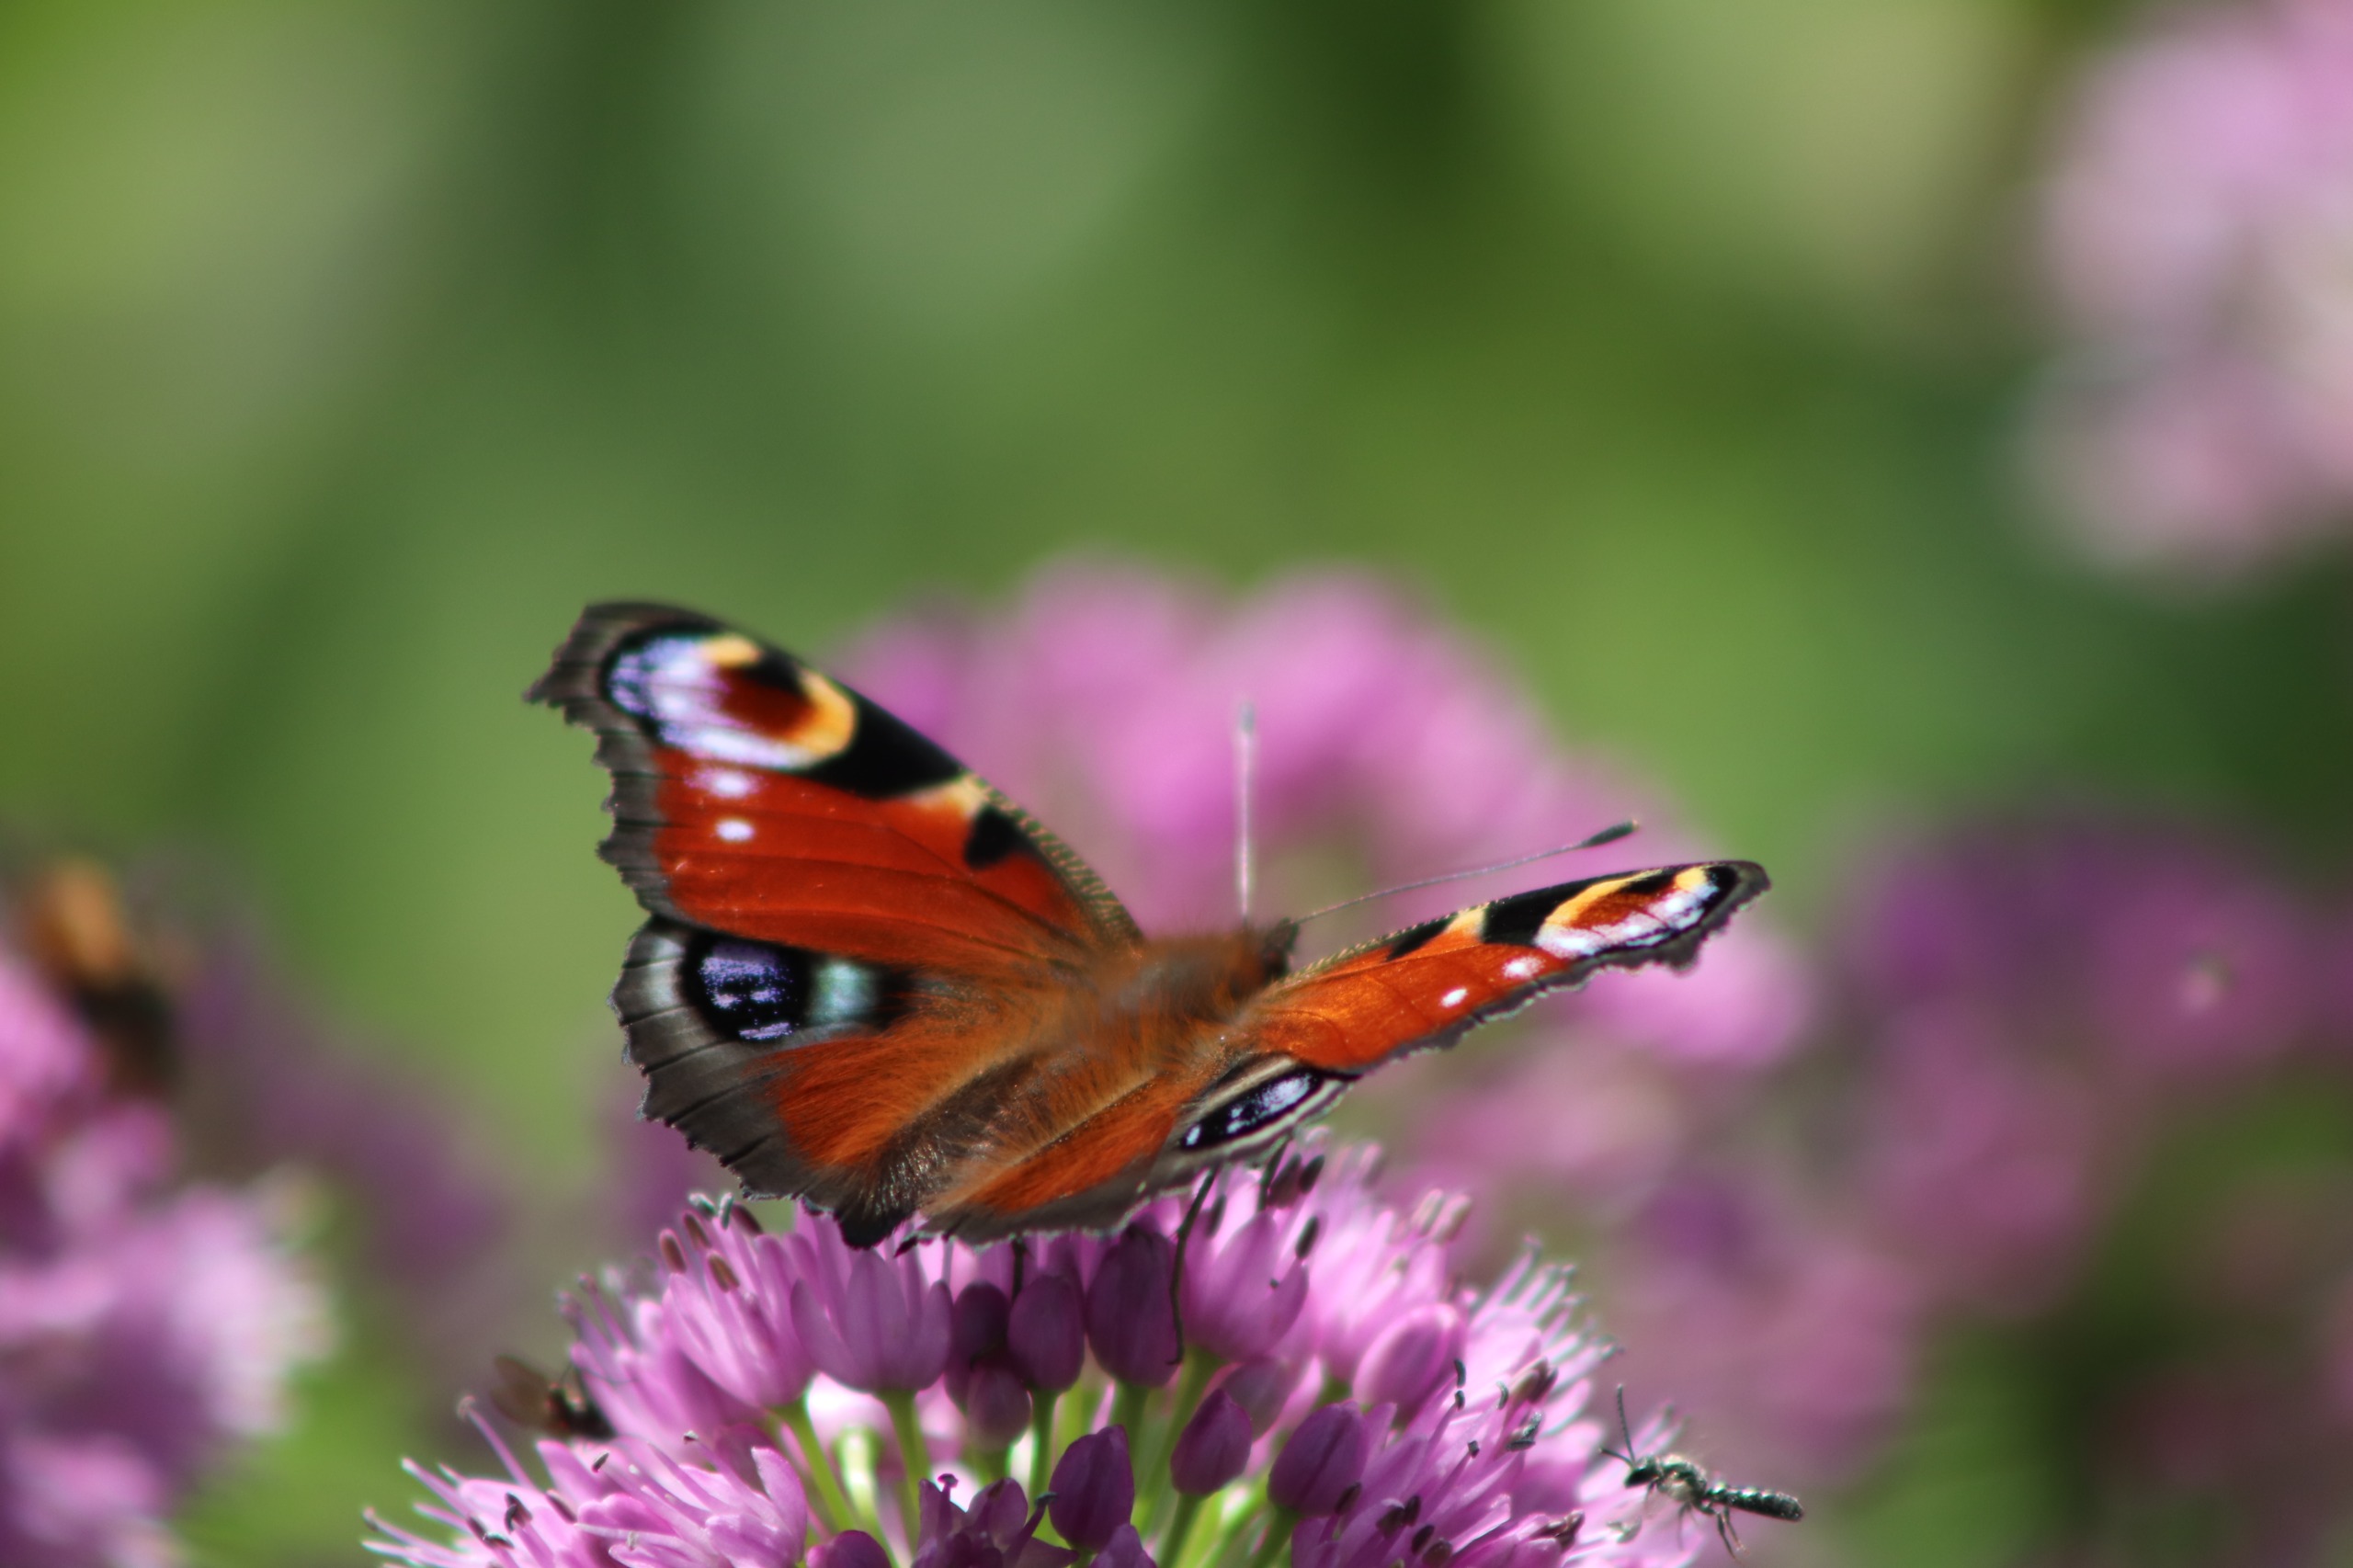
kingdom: Animalia
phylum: Arthropoda
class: Insecta
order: Lepidoptera
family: Nymphalidae
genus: Aglais
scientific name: Aglais io
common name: Dagpåfugleøje
